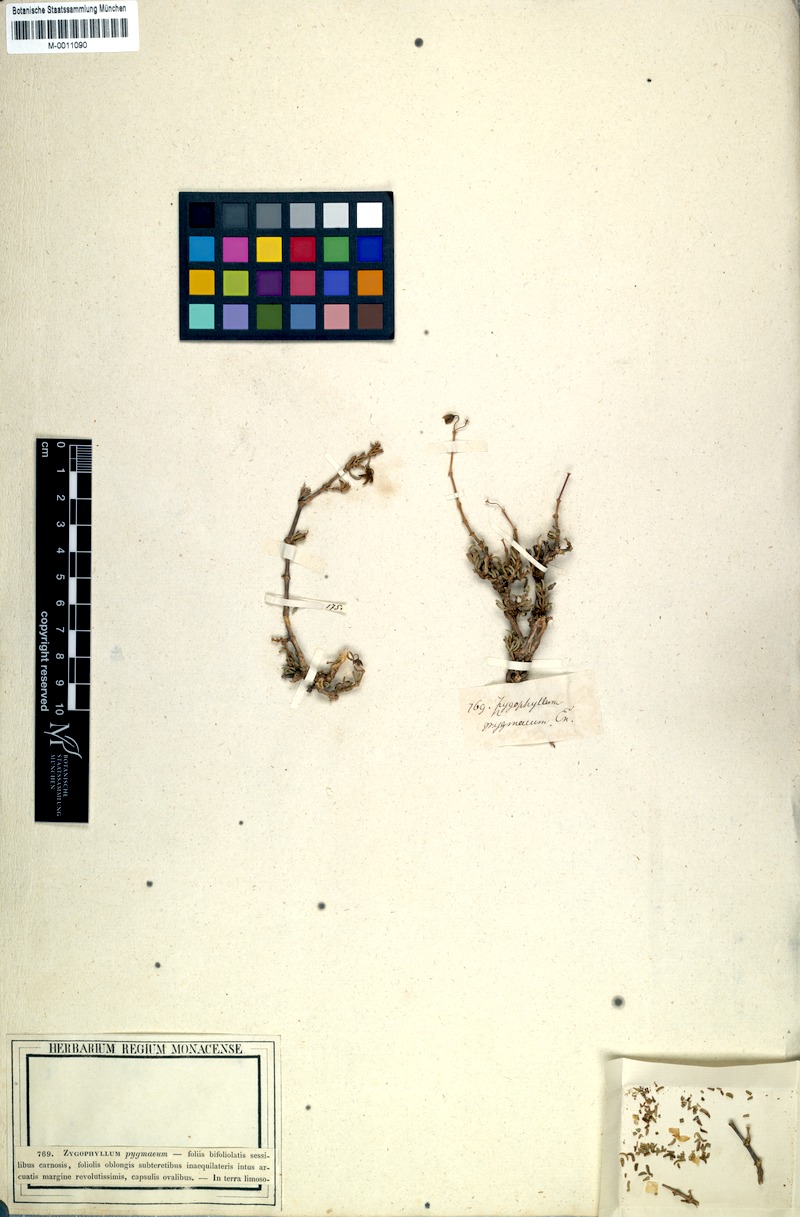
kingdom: Plantae
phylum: Tracheophyta
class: Magnoliopsida
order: Zygophyllales
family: Zygophyllaceae
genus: Roepera
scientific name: Roepera pygmaea
